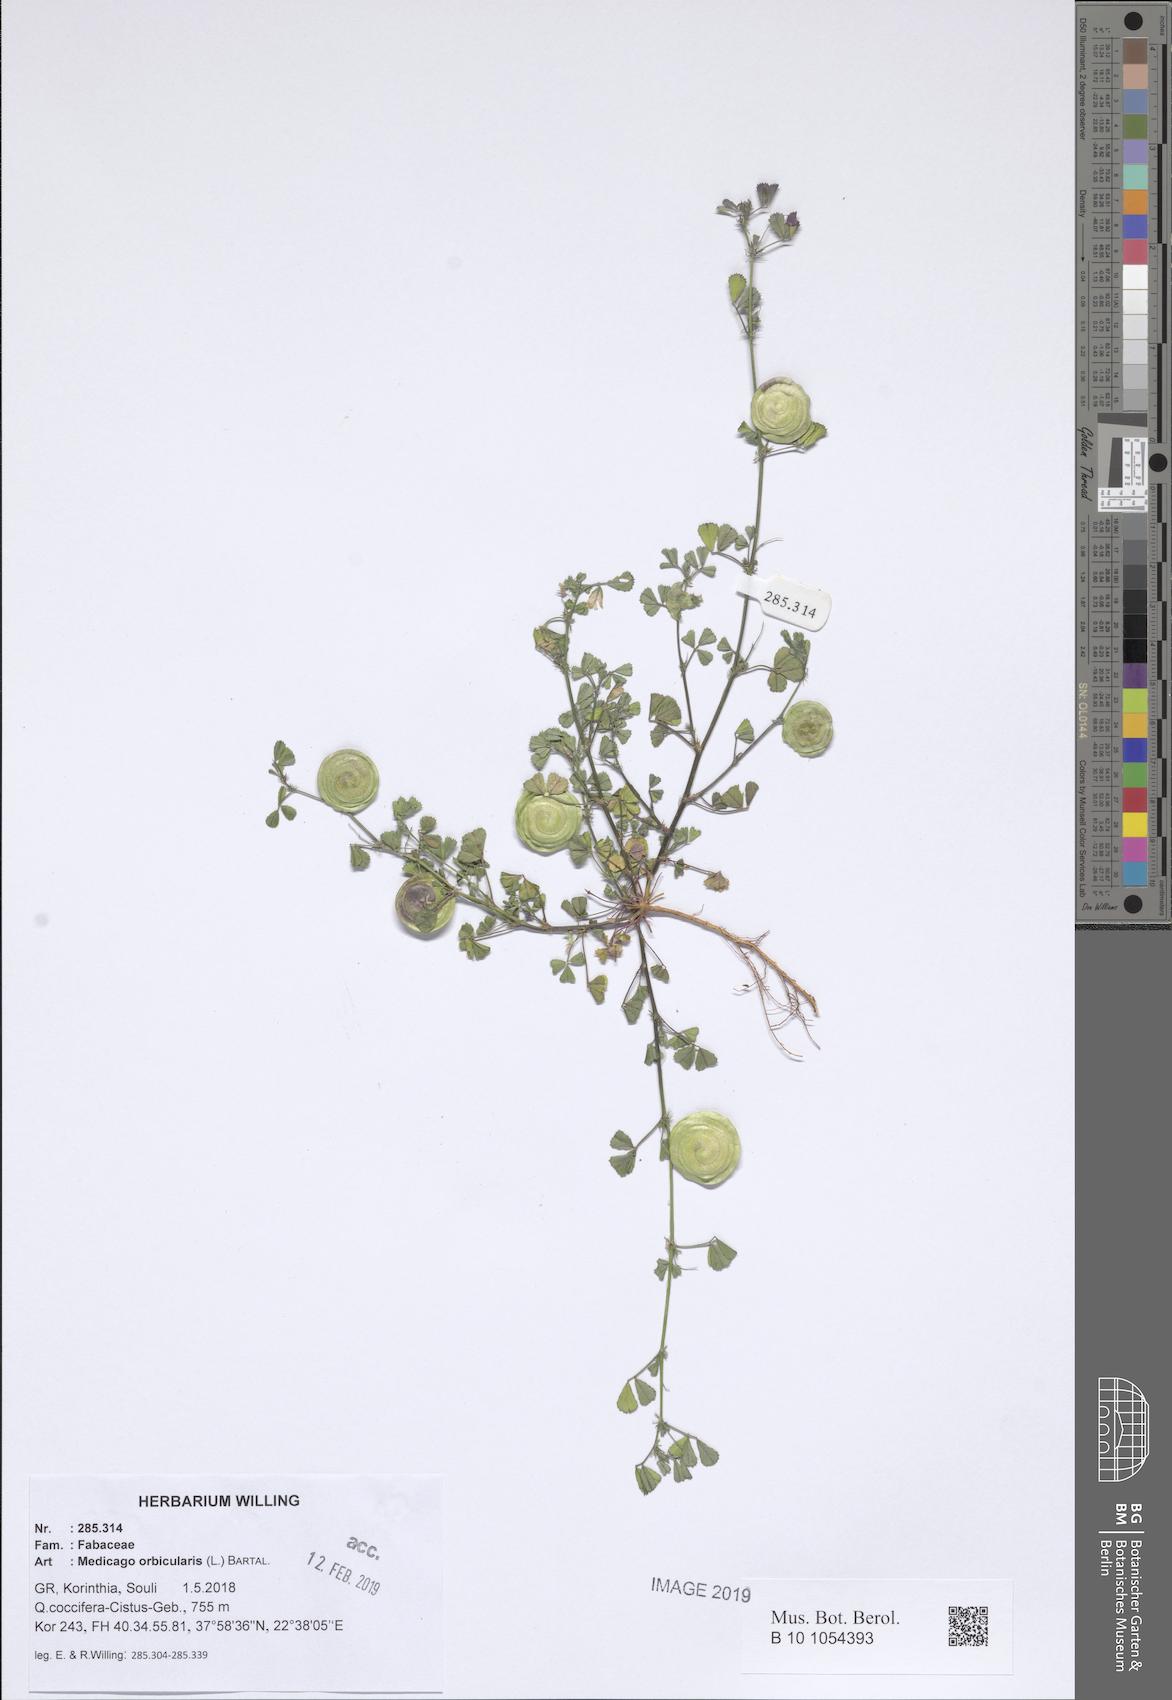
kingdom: Plantae
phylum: Tracheophyta
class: Magnoliopsida
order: Fabales
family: Fabaceae
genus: Medicago
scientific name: Medicago orbicularis
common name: Button medick
